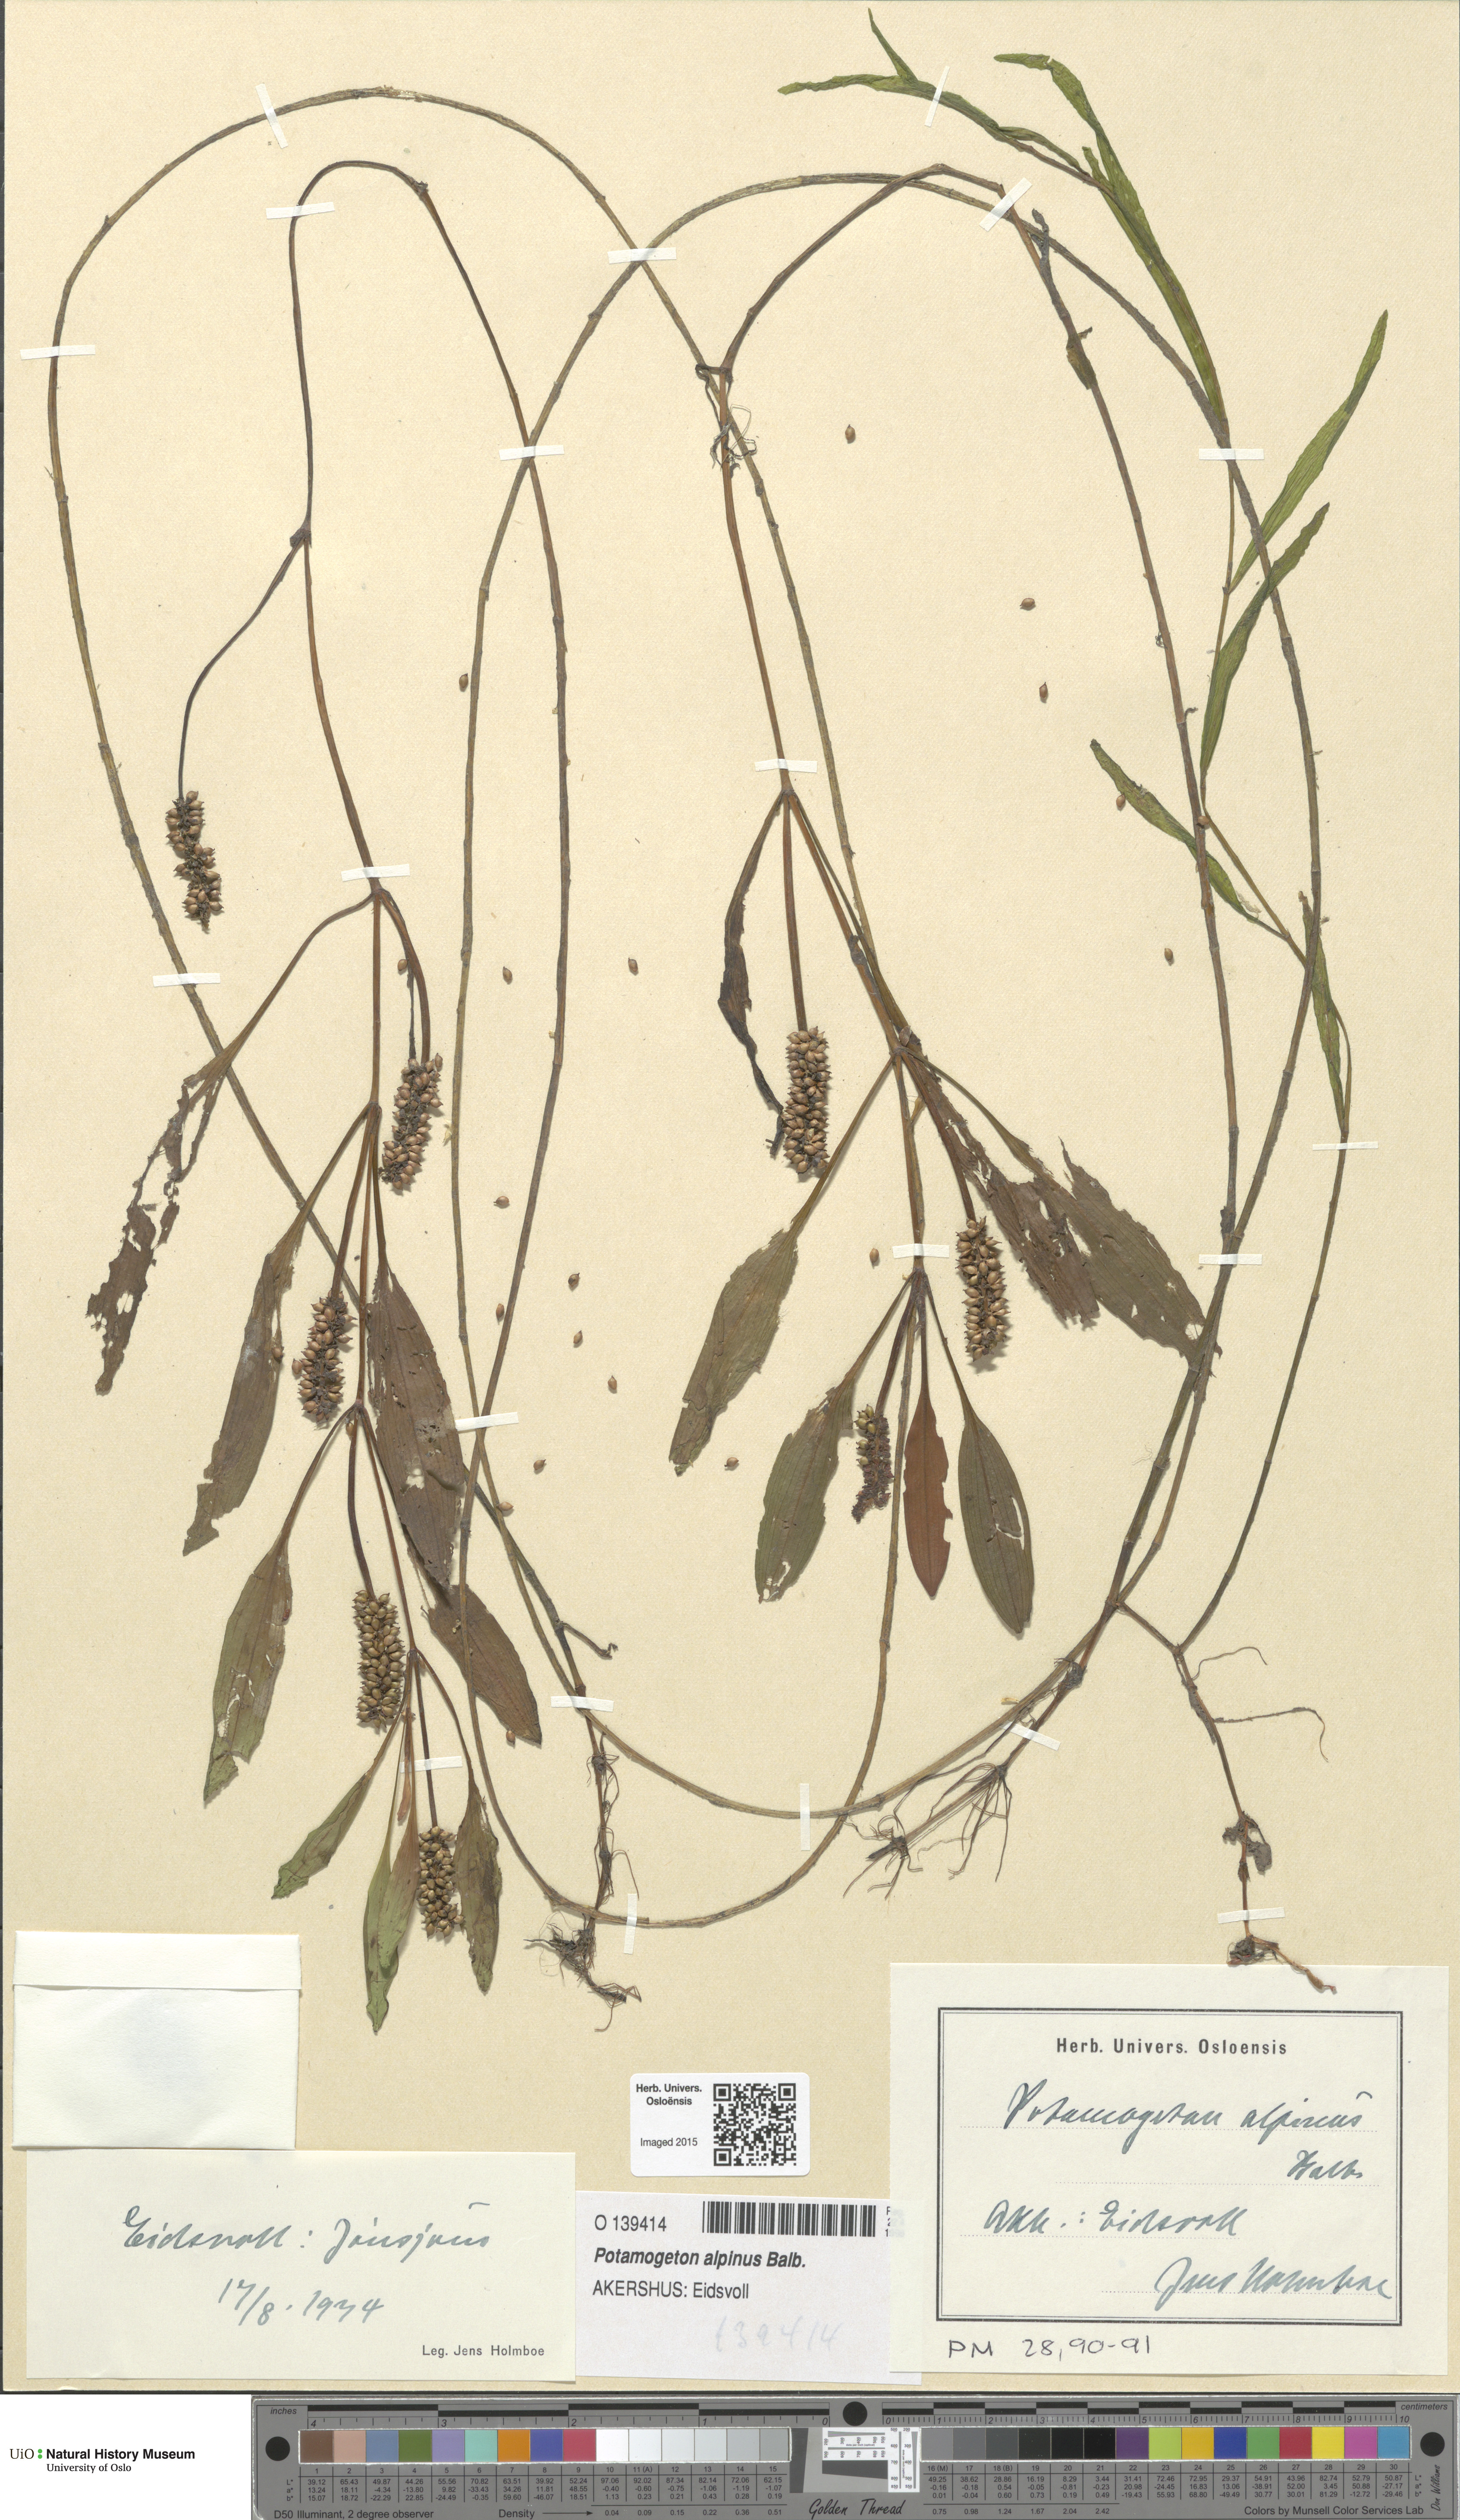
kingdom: Plantae
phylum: Tracheophyta
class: Liliopsida
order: Alismatales
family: Potamogetonaceae
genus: Potamogeton
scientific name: Potamogeton alpinus
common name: Red pondweed
